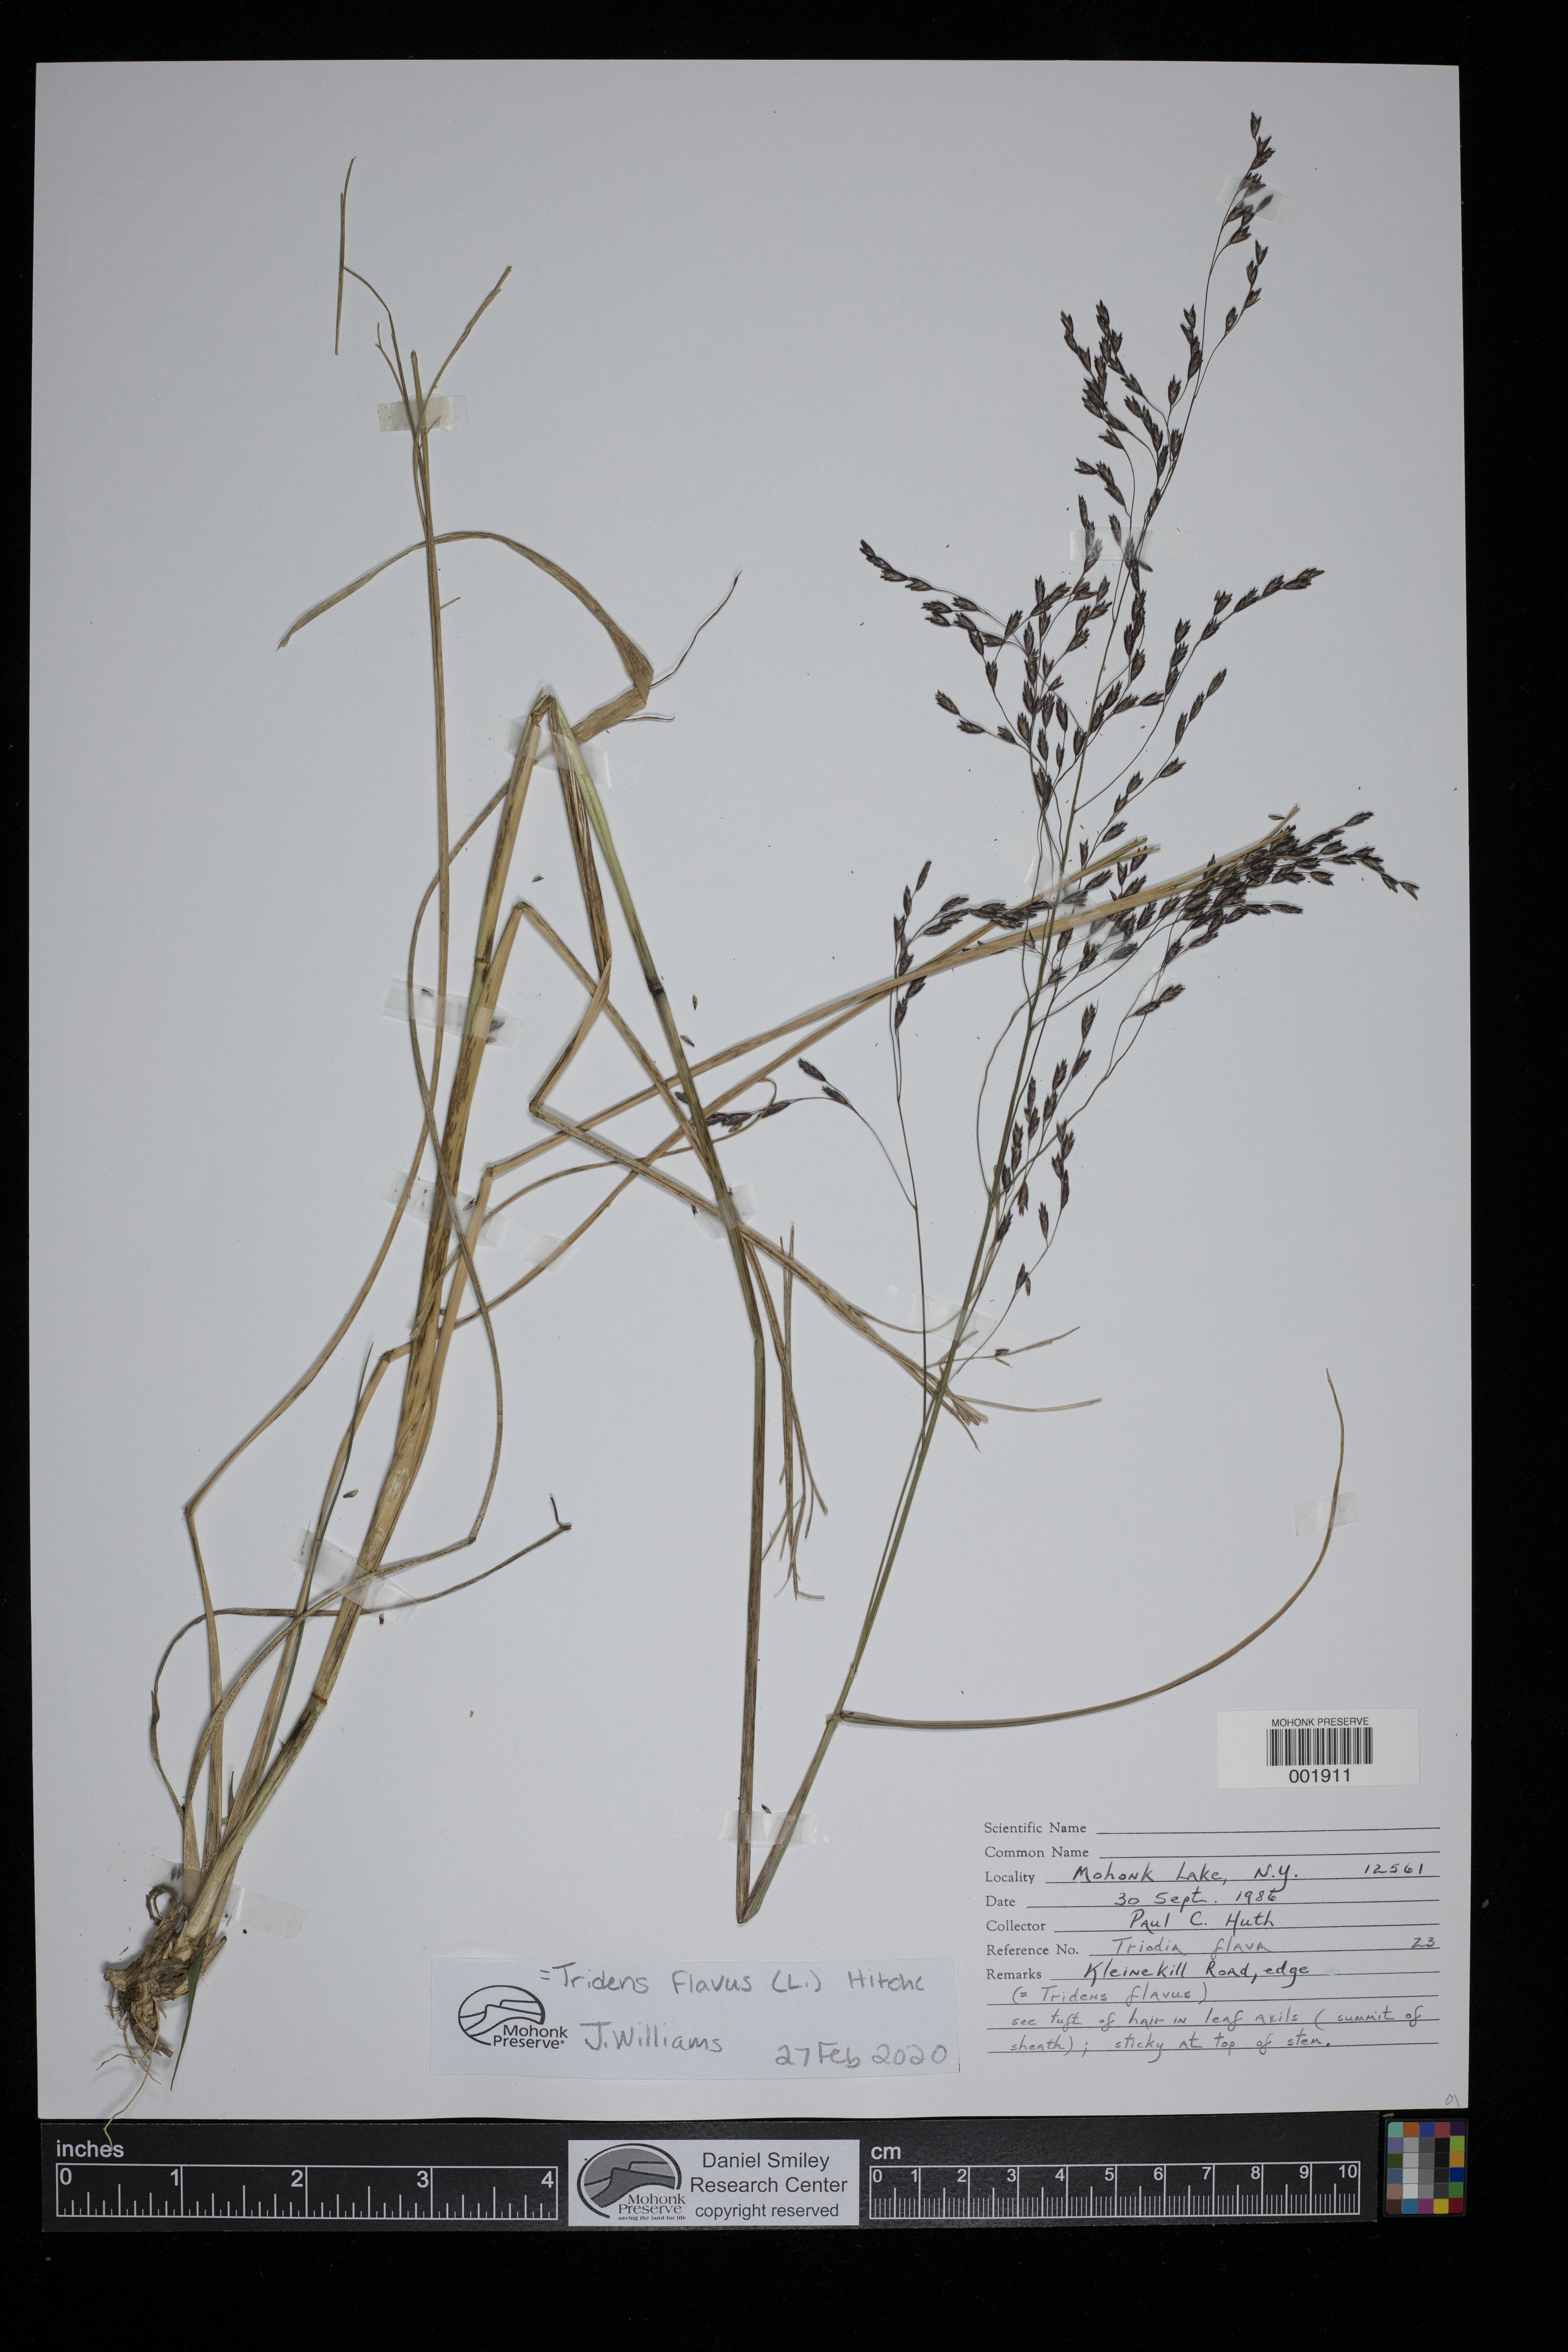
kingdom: Plantae
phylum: Tracheophyta
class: Liliopsida
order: Poales
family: Poaceae
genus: Tridens
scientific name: Tridens flavus
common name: Purpletop
